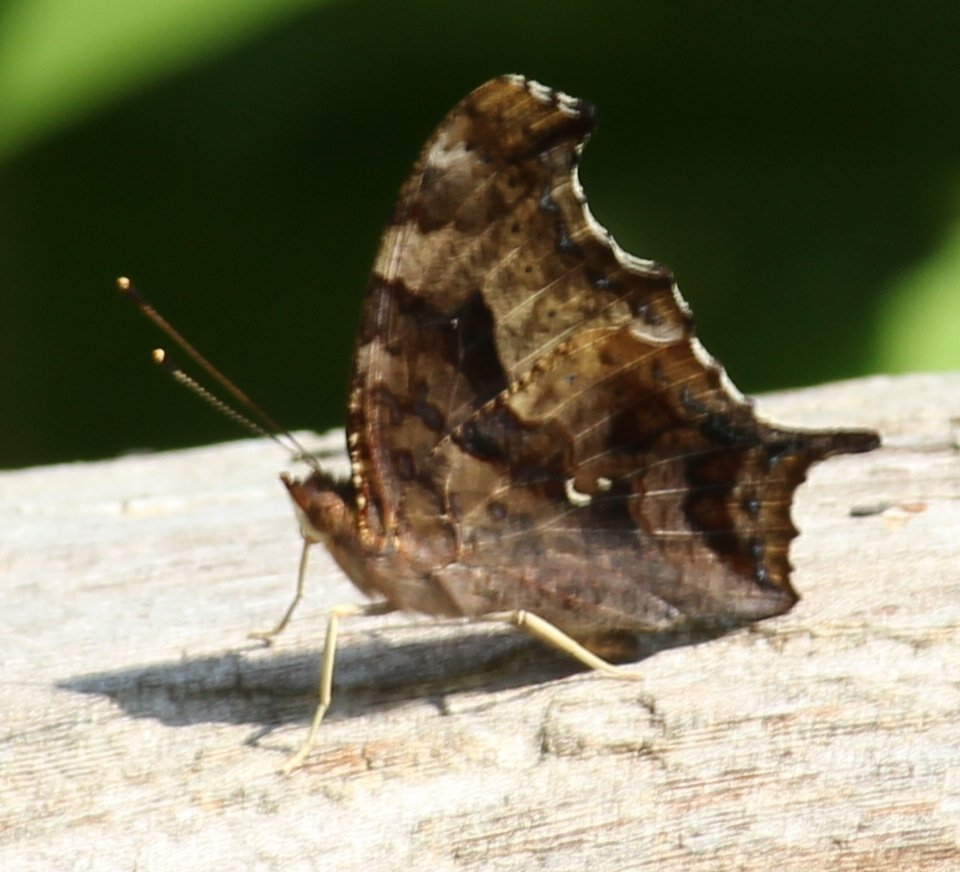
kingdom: Animalia
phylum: Arthropoda
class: Insecta
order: Lepidoptera
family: Nymphalidae
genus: Polygonia
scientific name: Polygonia interrogationis
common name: Question Mark
